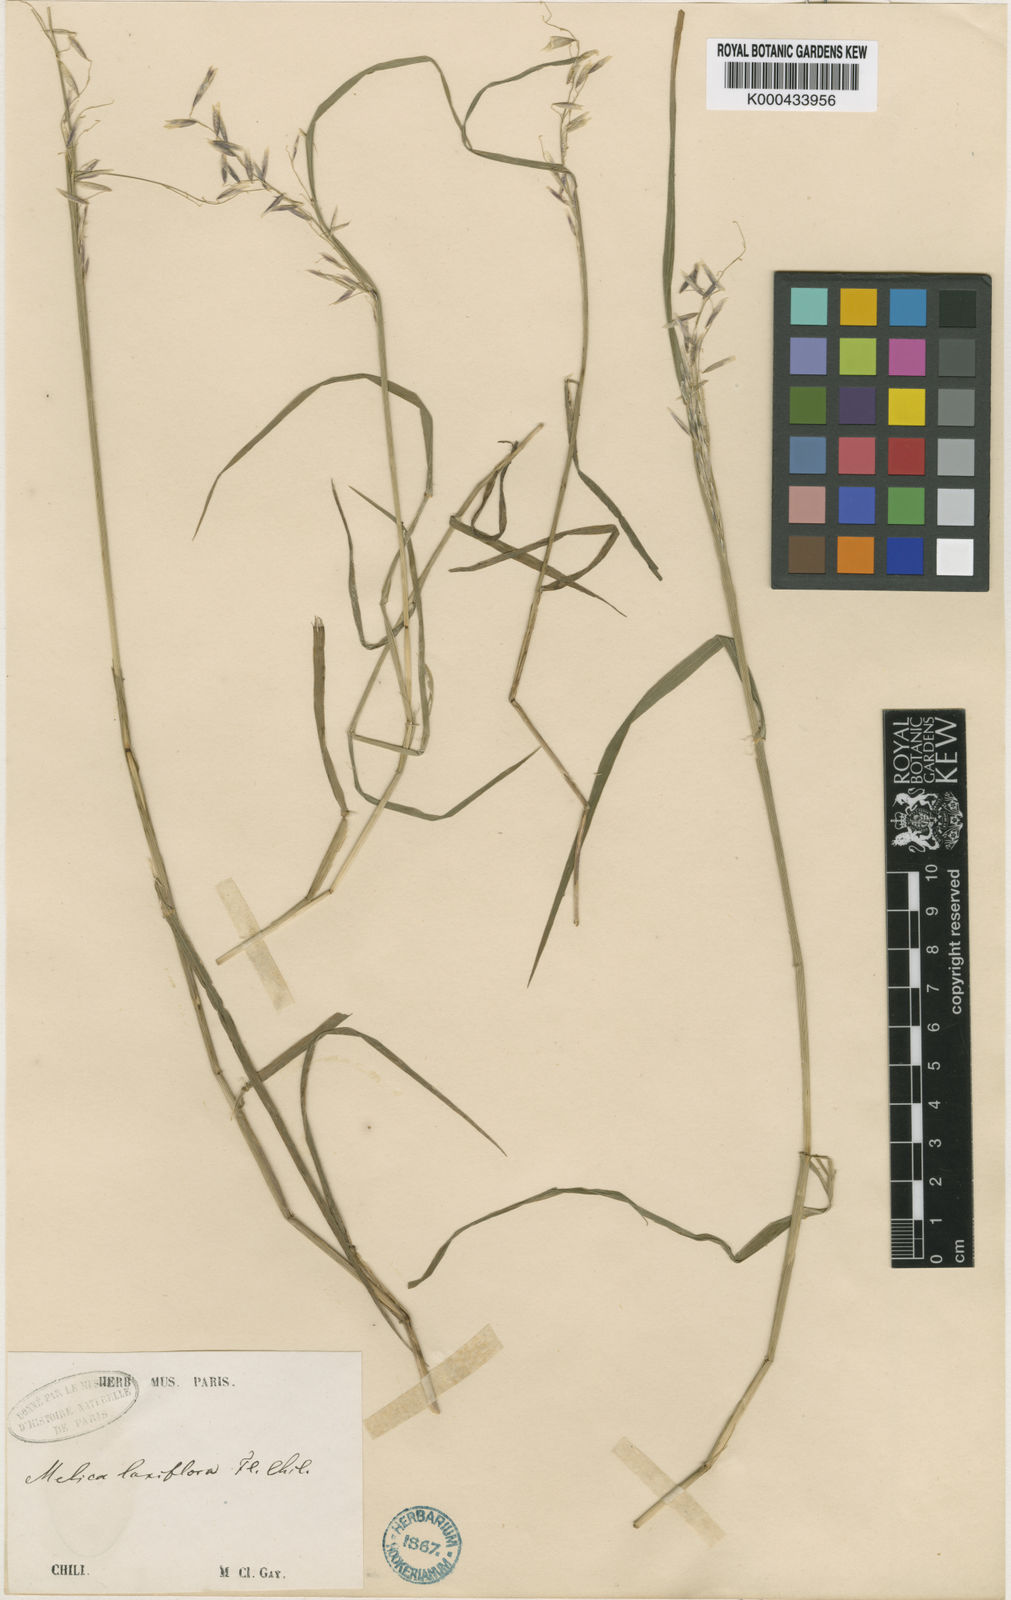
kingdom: Plantae
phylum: Tracheophyta
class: Liliopsida
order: Poales
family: Poaceae
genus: Melica
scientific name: Melica
